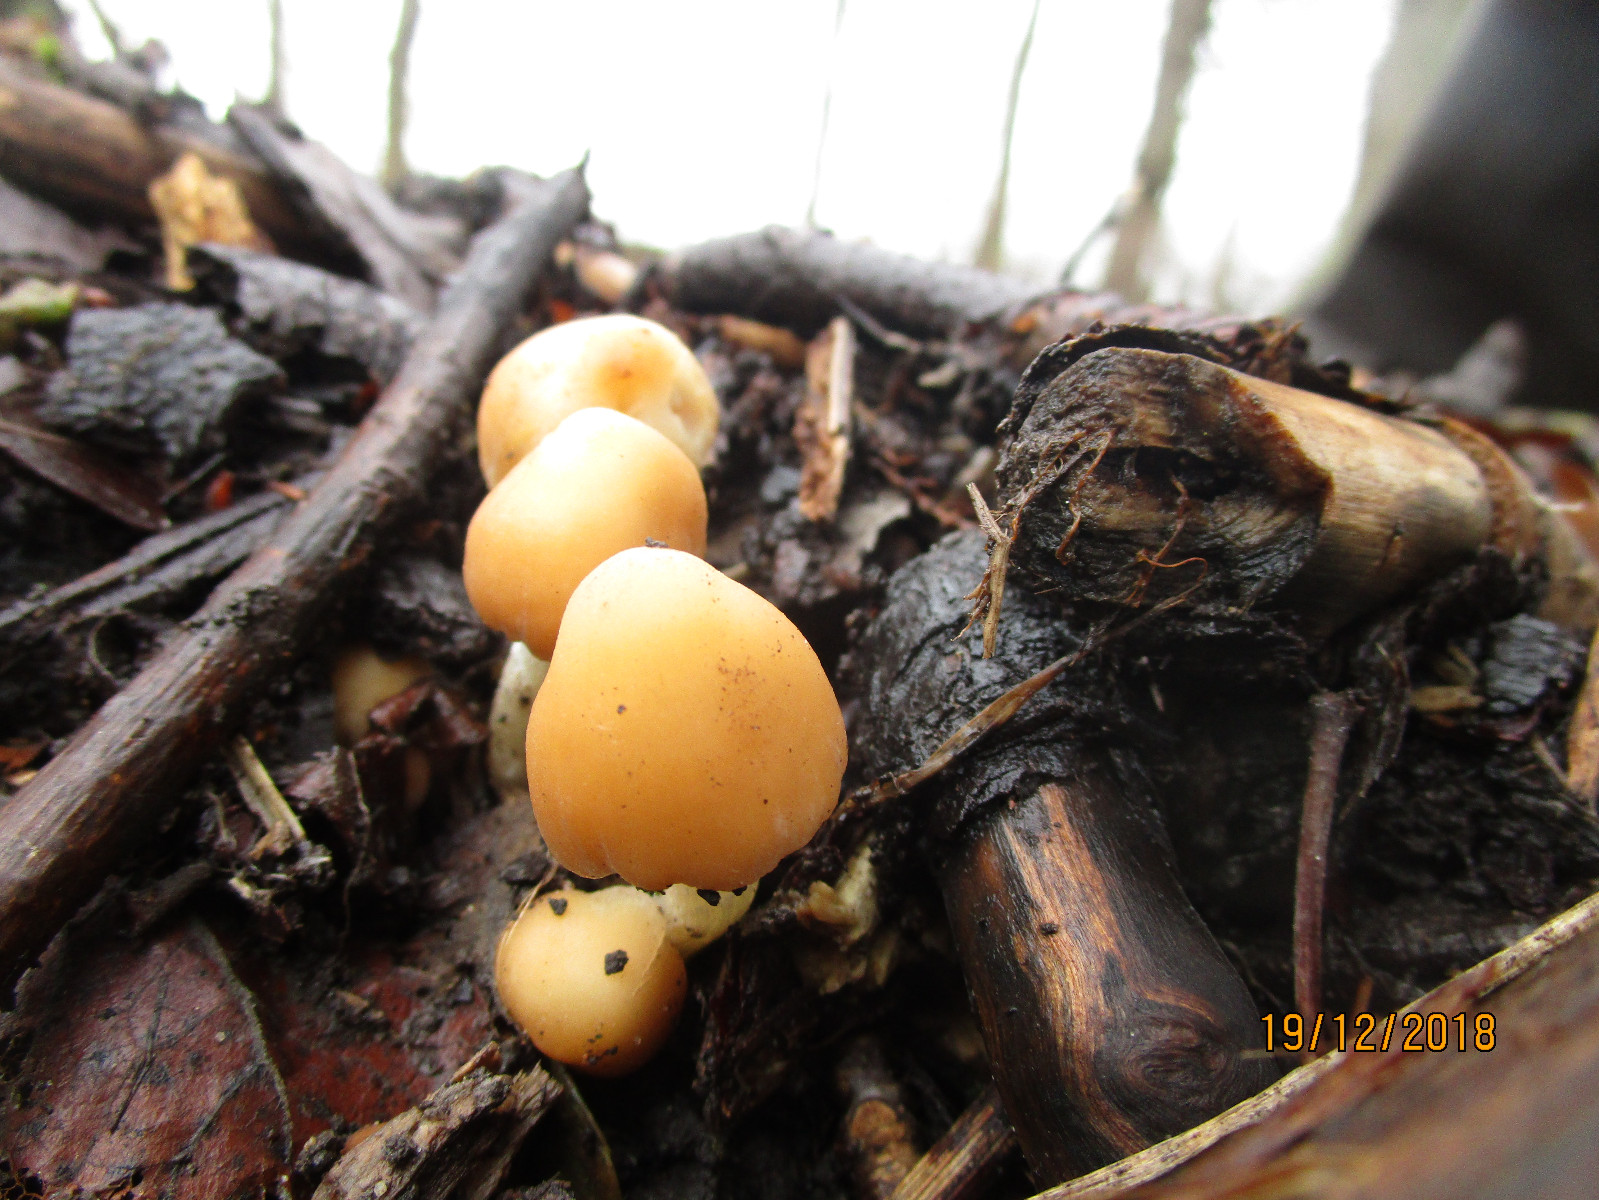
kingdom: Fungi
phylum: Basidiomycota
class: Agaricomycetes
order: Agaricales
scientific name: Agaricales
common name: champignonordenen
